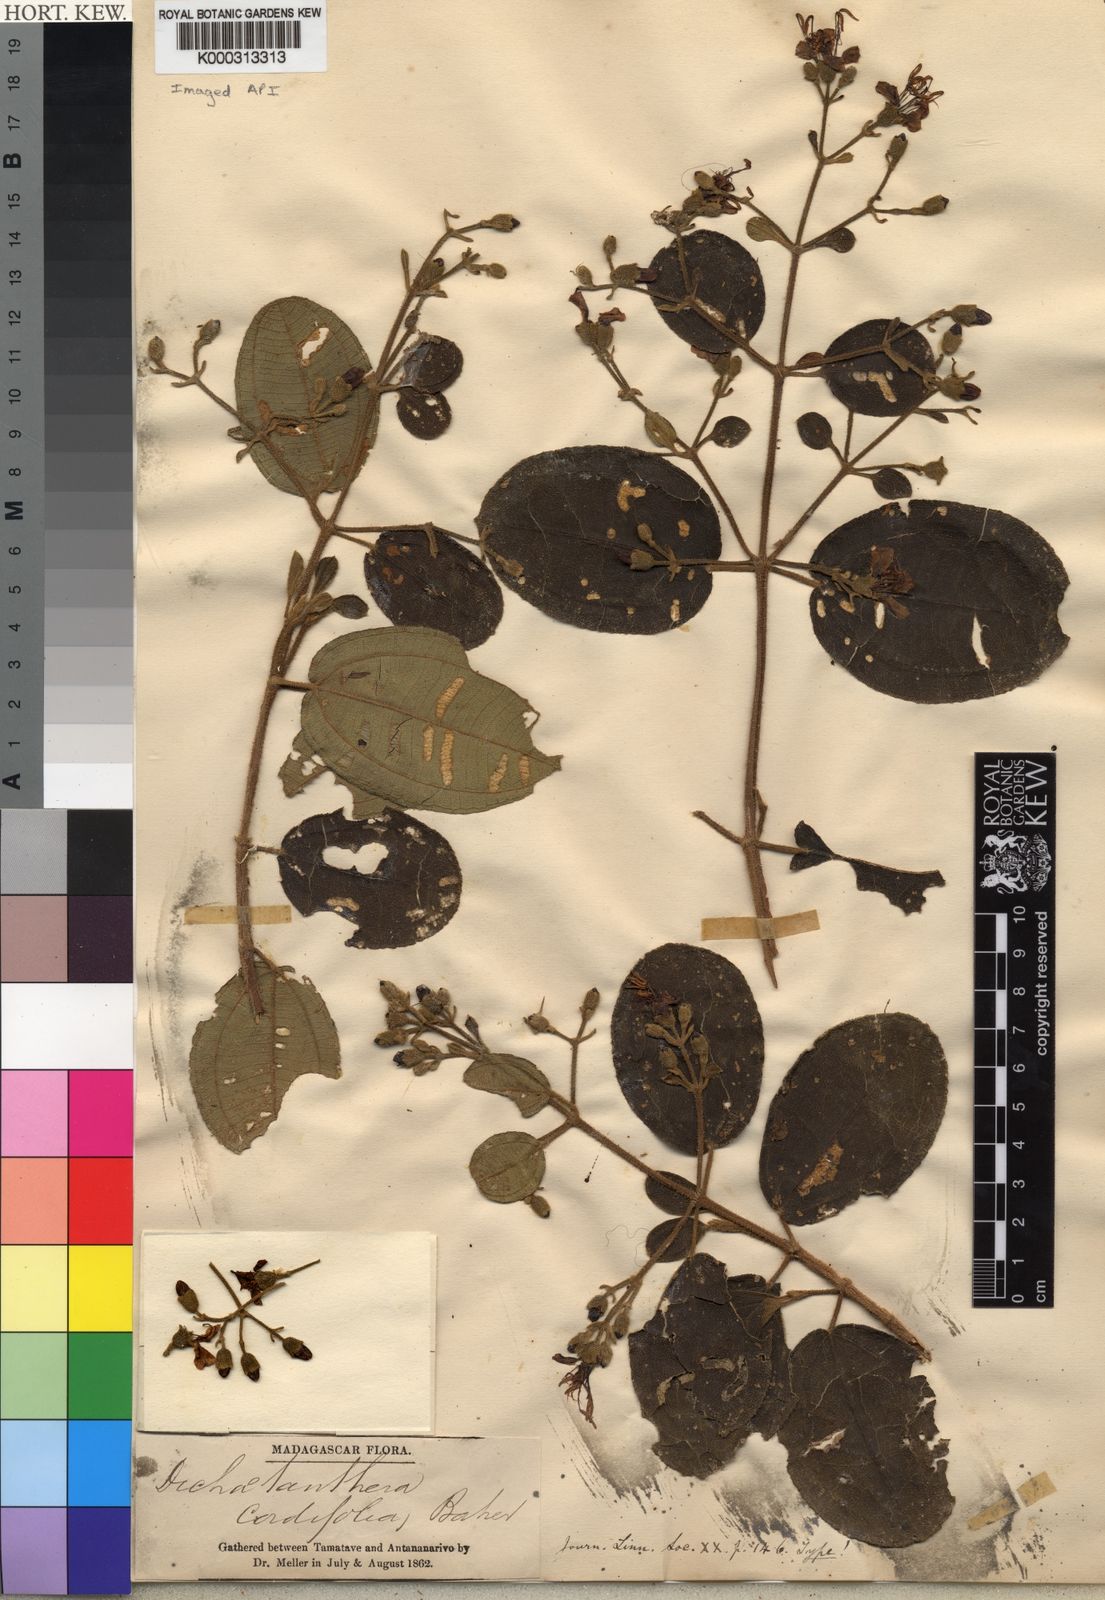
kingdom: Plantae
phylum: Tracheophyta
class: Magnoliopsida
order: Myrtales
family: Melastomataceae
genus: Dichaetanthera
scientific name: Dichaetanthera cordifolia
